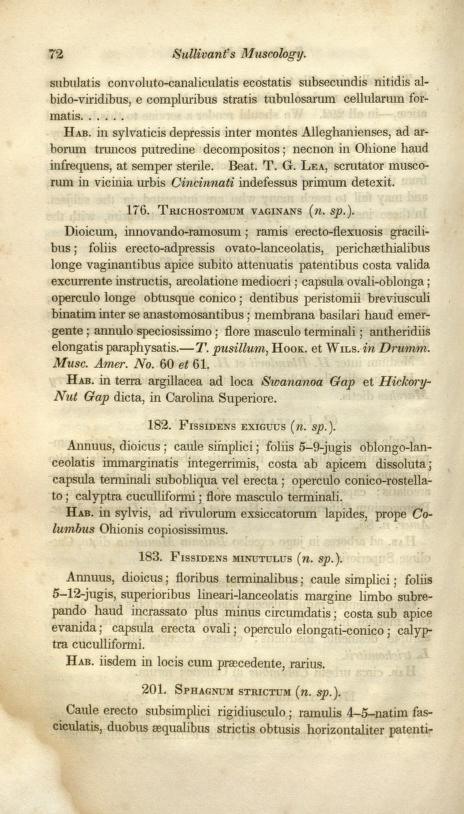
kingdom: Plantae
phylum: Bryophyta
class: Bryopsida
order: Dicranales
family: Fissidentaceae
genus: Fissidens
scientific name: Fissidens minutulus
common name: Minute pocket moss
